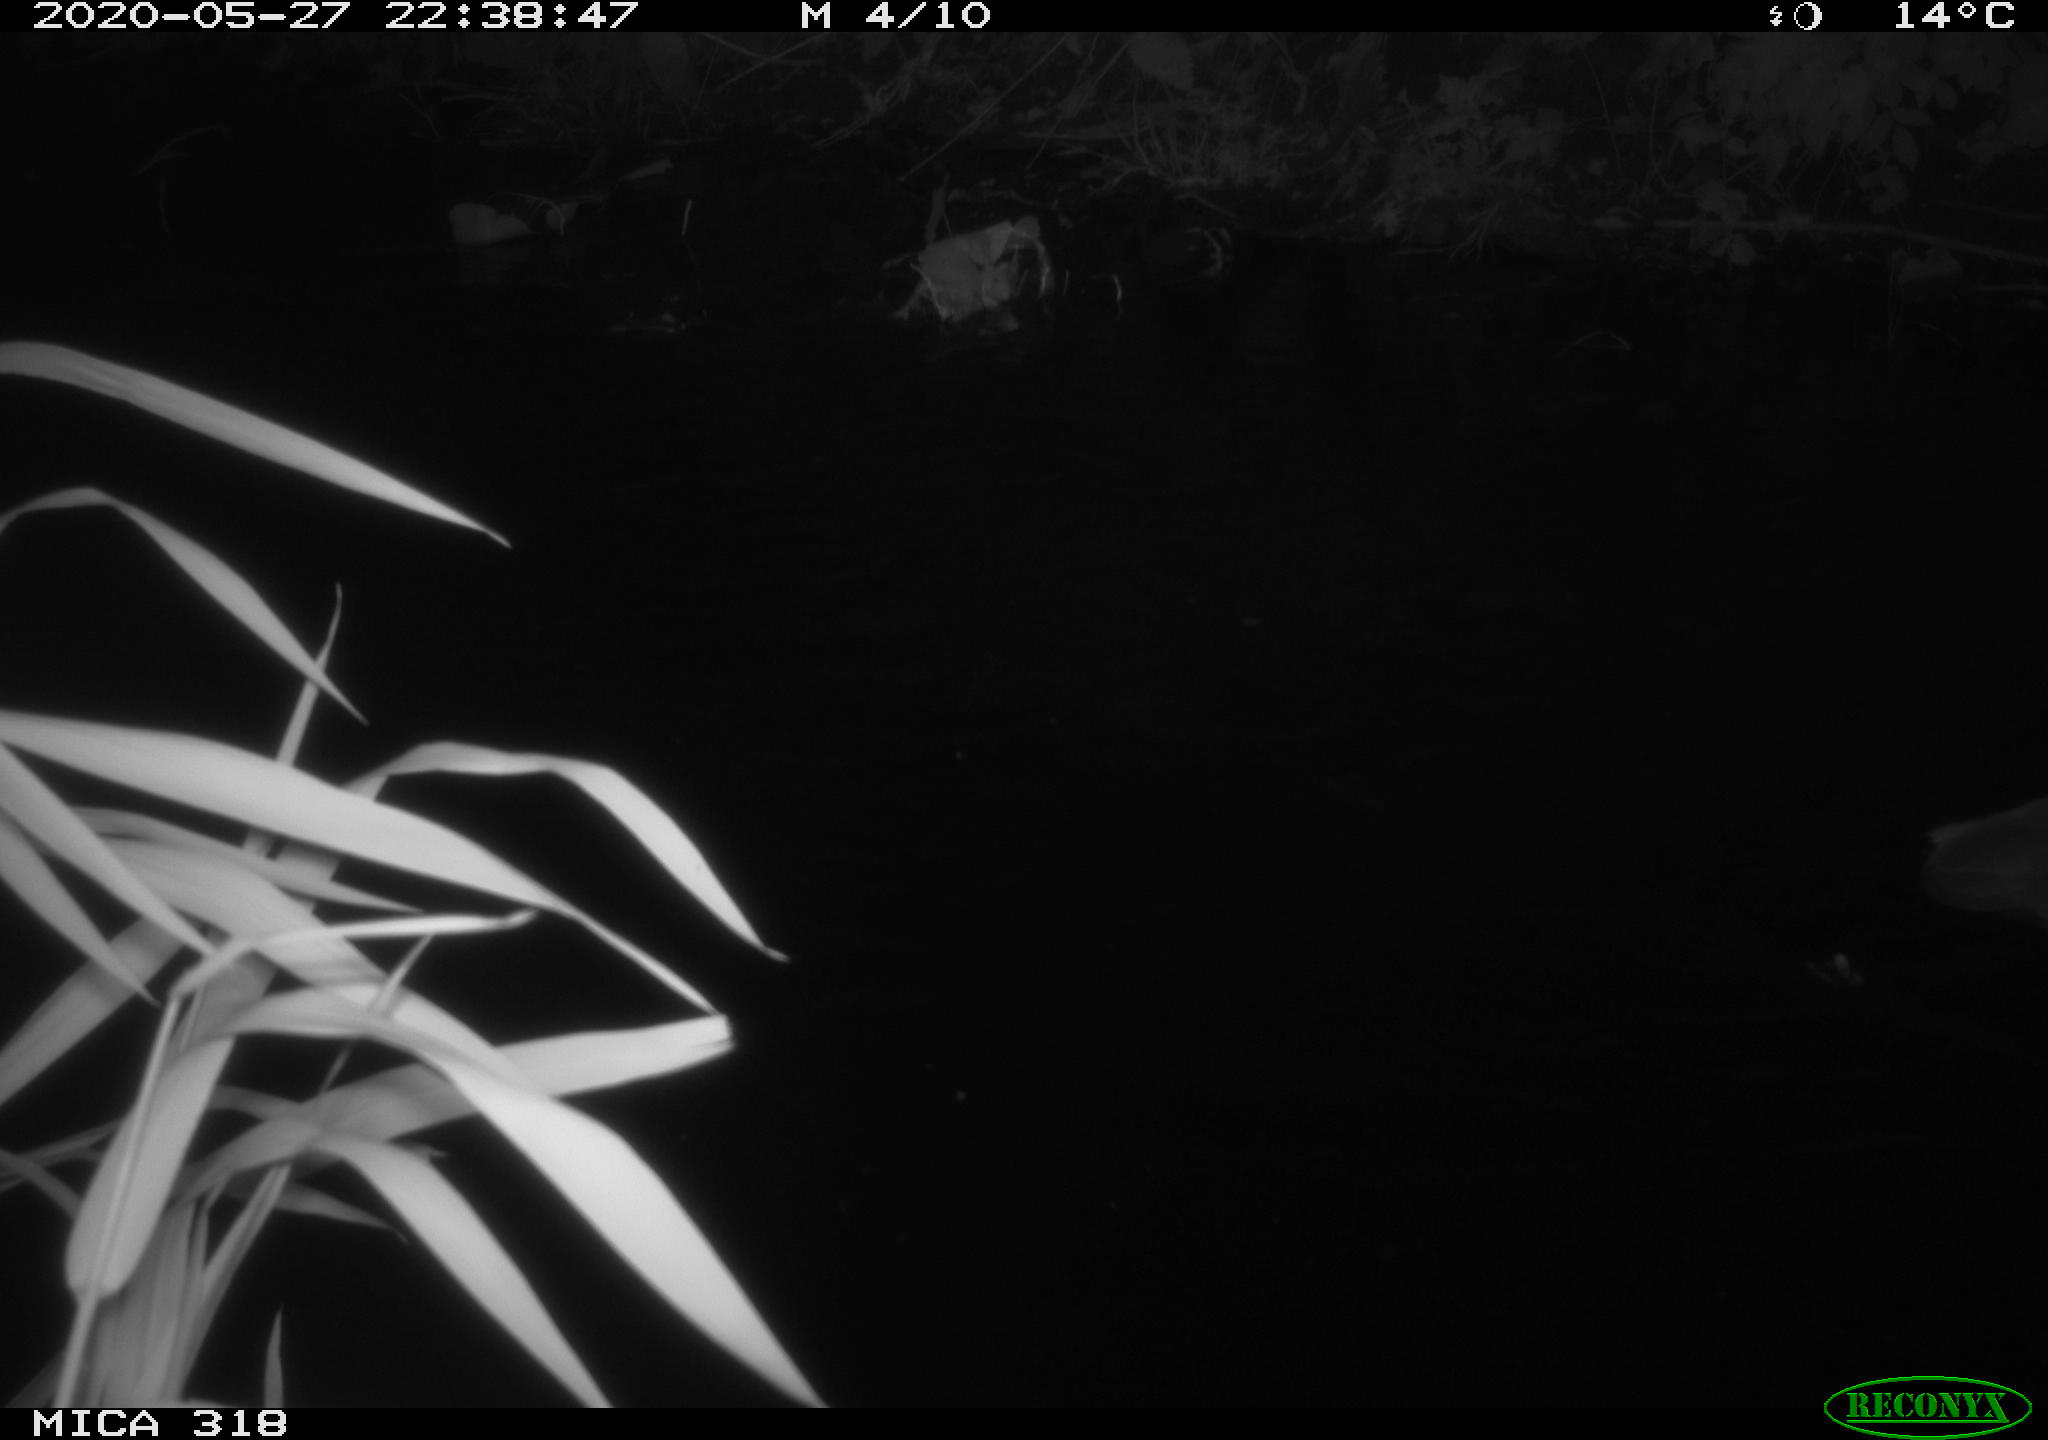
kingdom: Animalia
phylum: Chordata
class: Aves
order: Pelecaniformes
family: Ardeidae
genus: Ardea
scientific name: Ardea cinerea
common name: Grey heron
